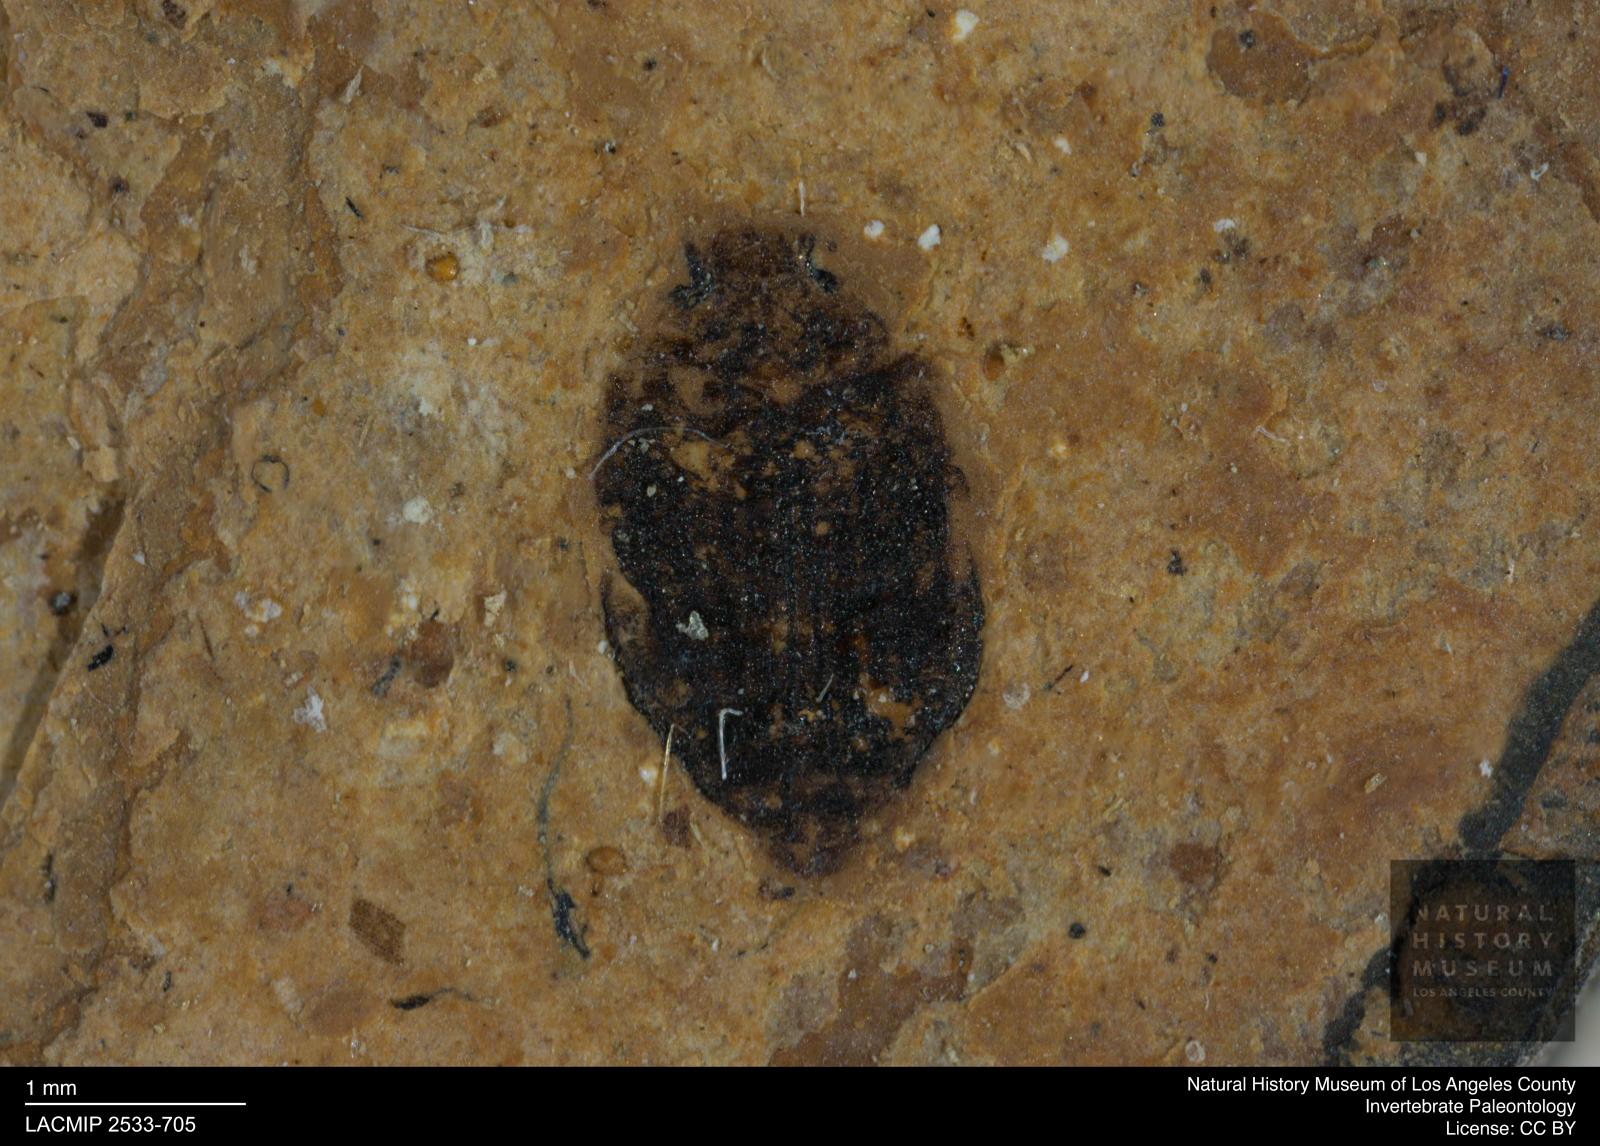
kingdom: Animalia
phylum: Arthropoda
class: Insecta
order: Coleoptera
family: Dytiscidae
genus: Oreodytes
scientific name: Oreodytes cryptolineatus
